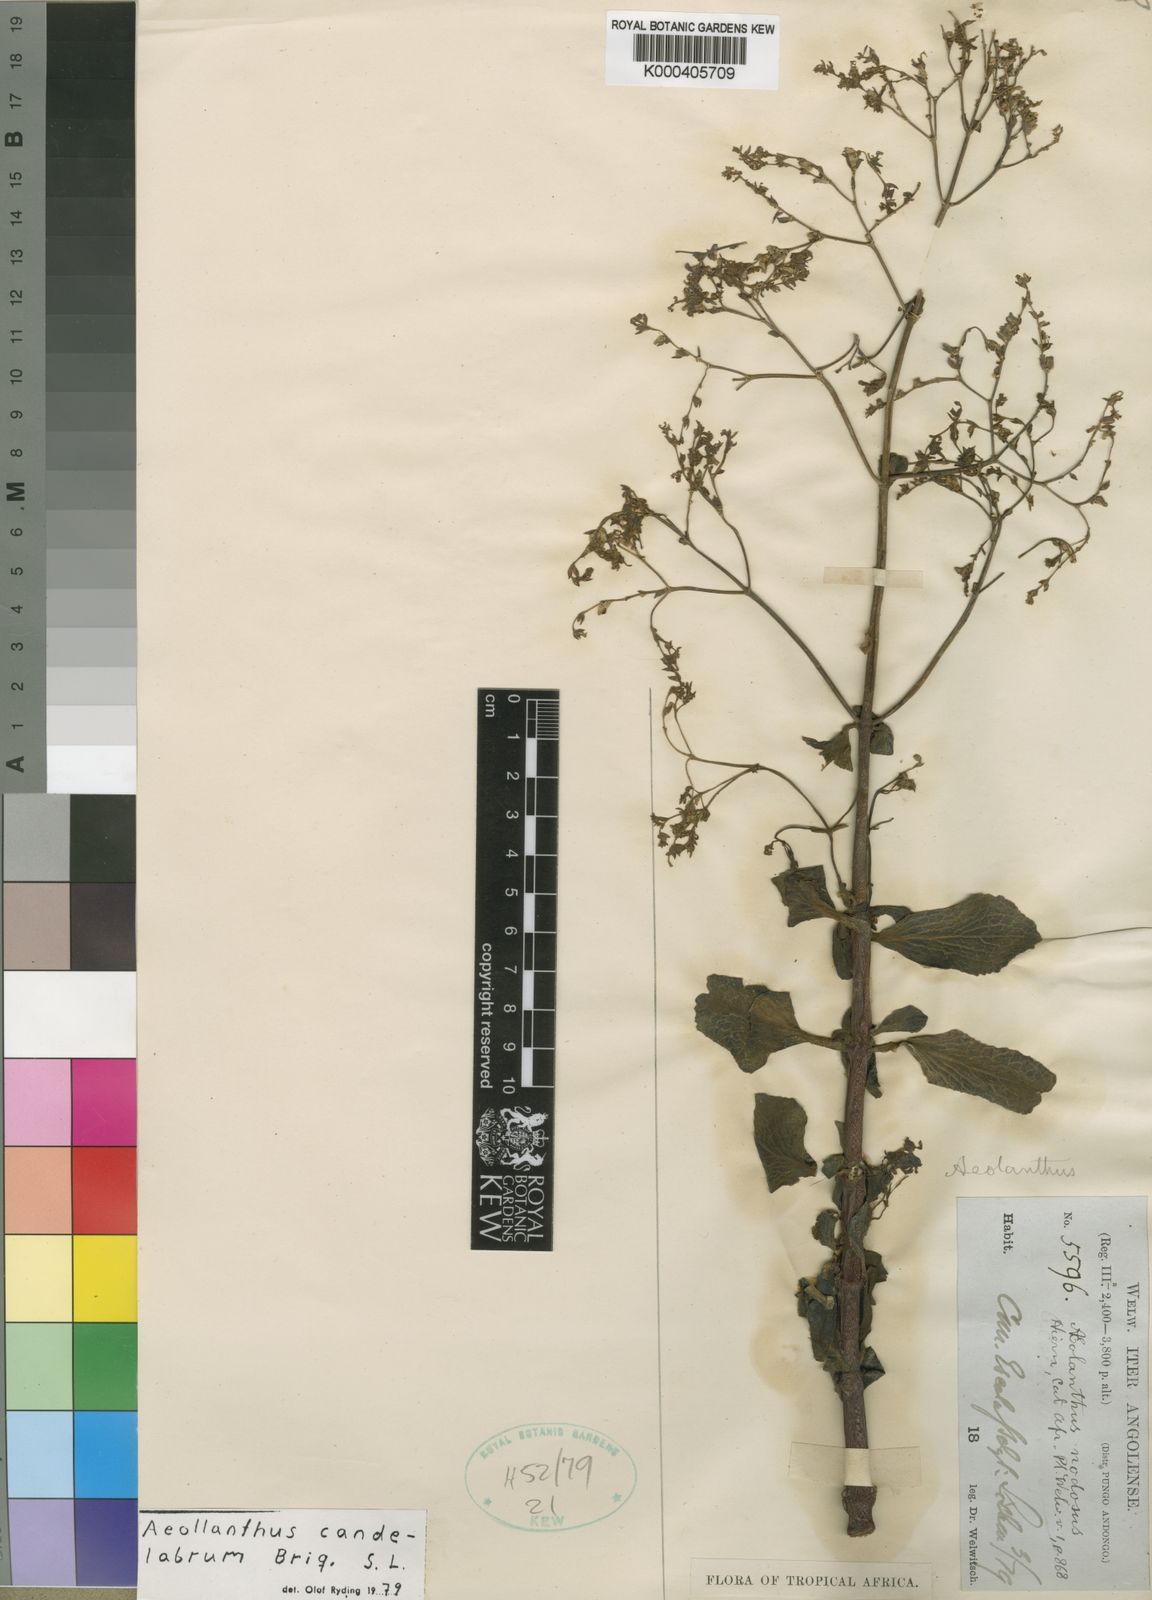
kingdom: Plantae
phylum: Tracheophyta
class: Magnoliopsida
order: Lamiales
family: Lamiaceae
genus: Aeollanthus
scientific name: Aeollanthus candelabrum
